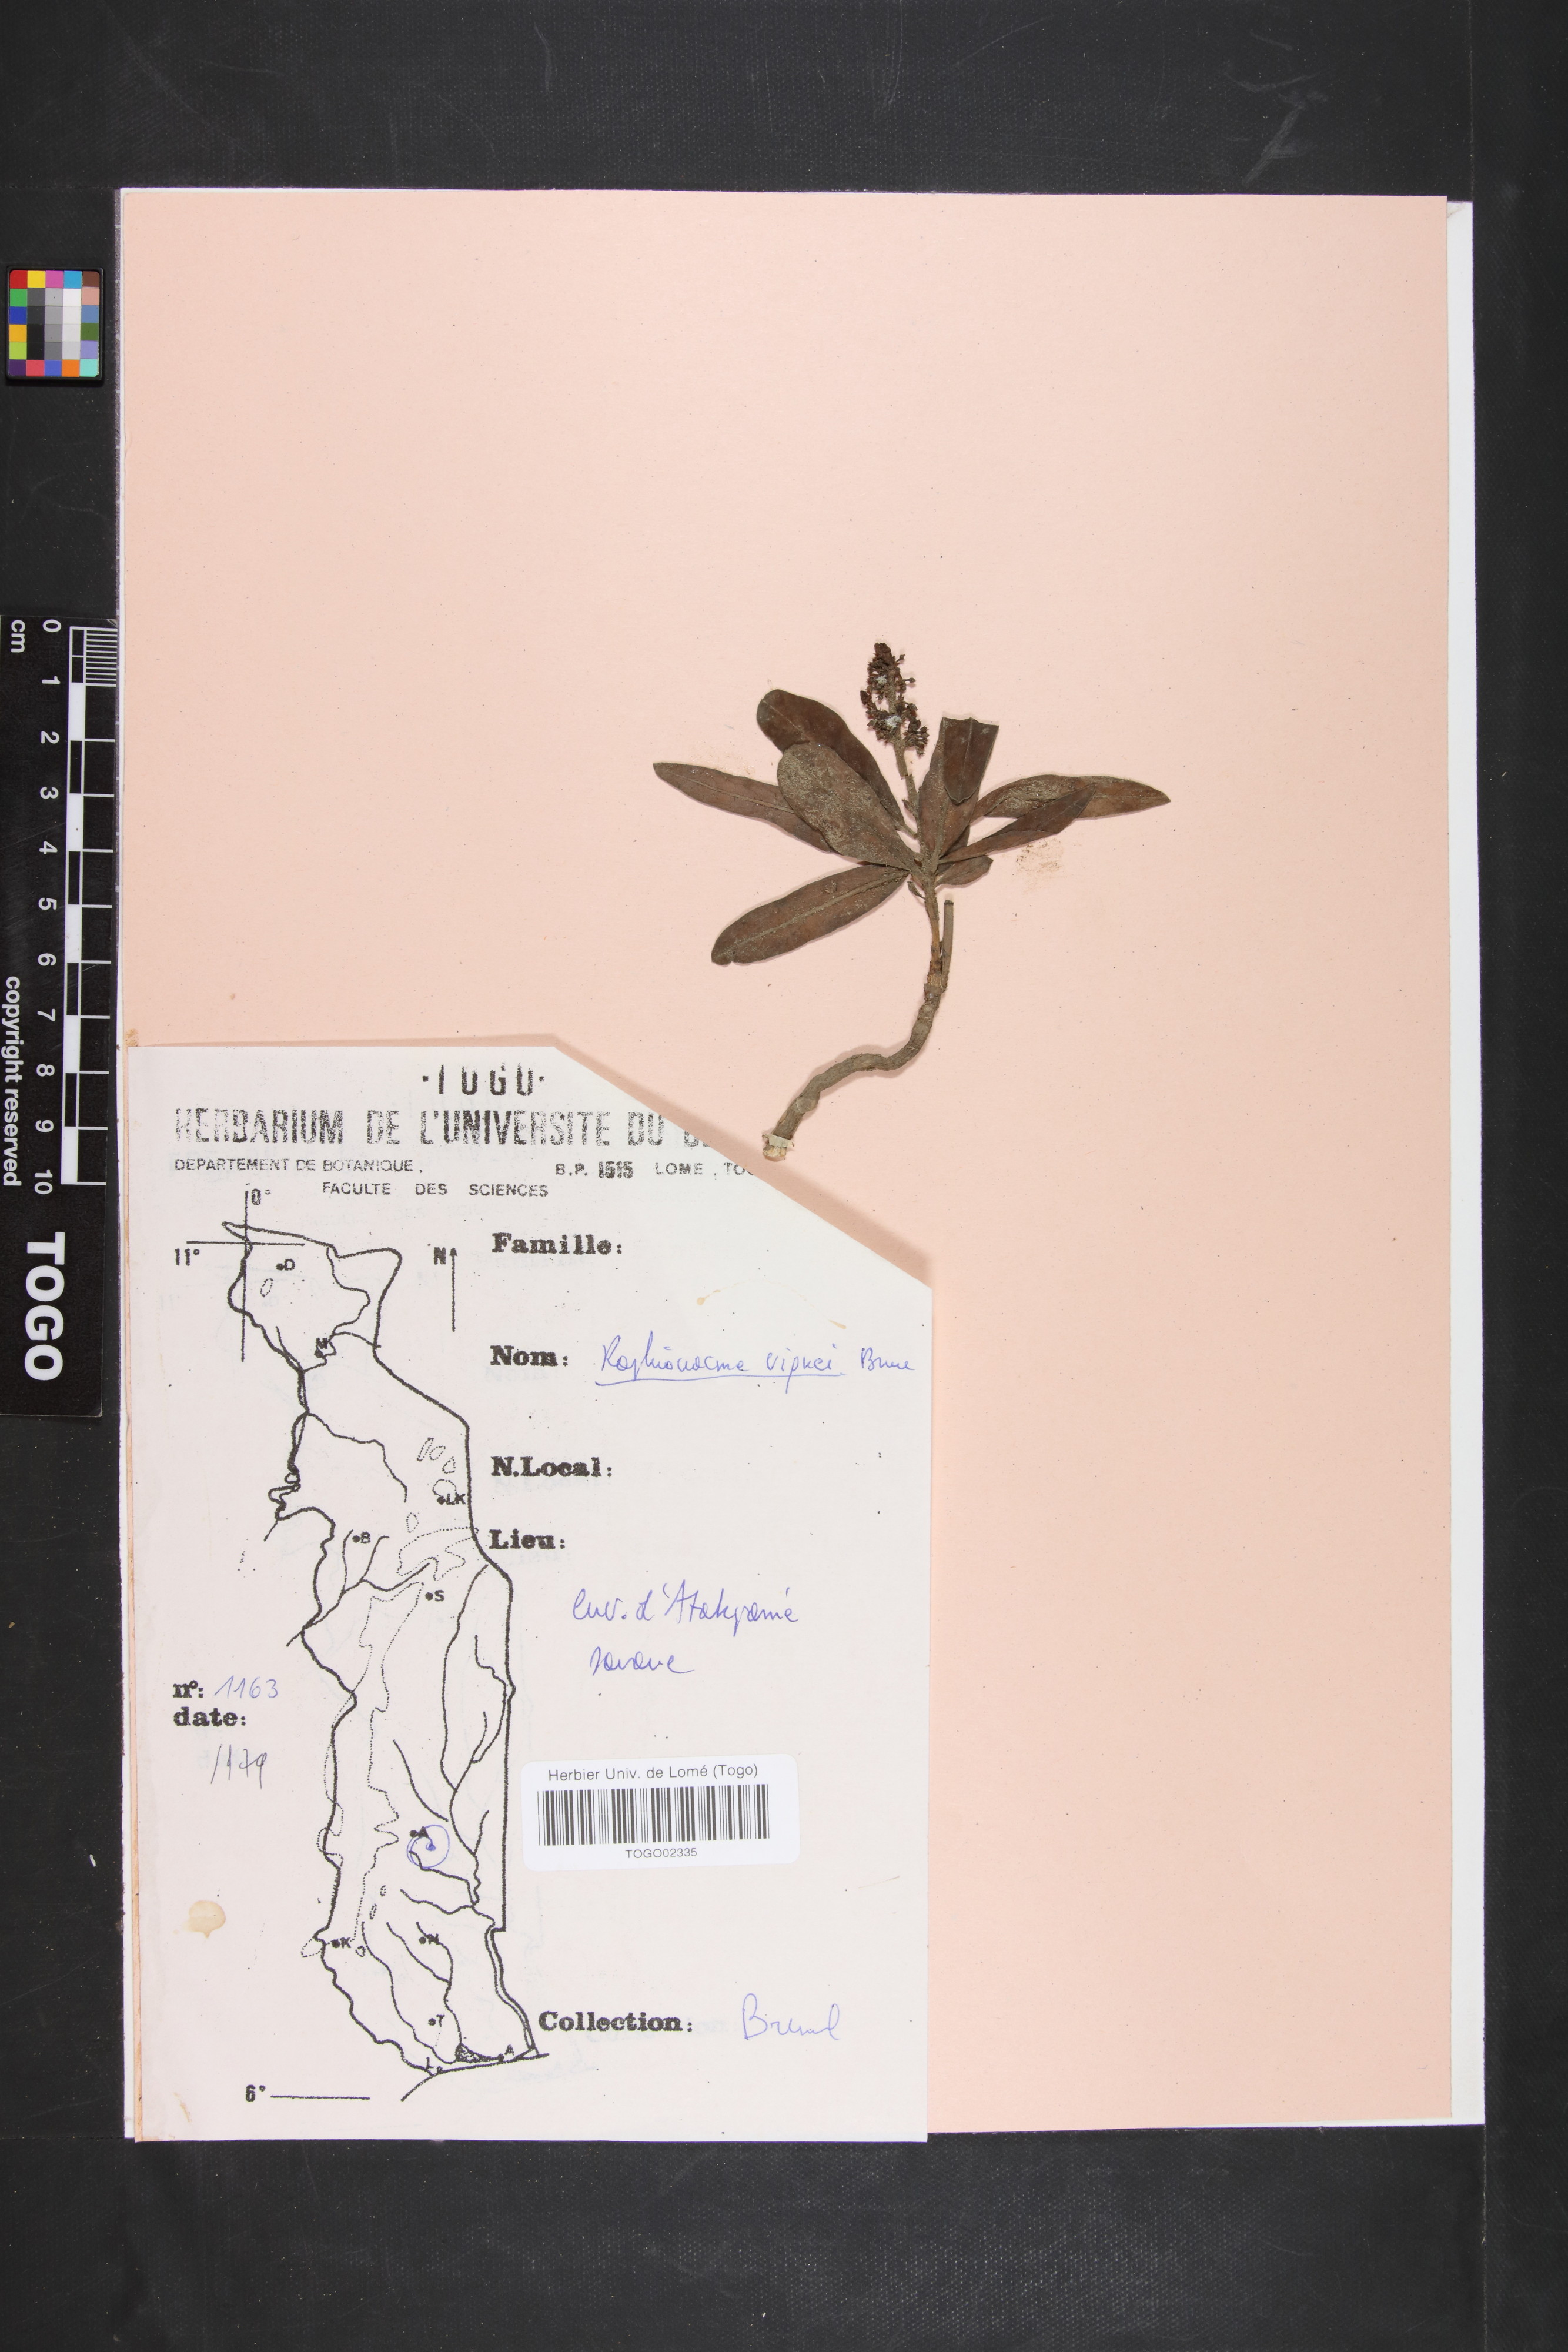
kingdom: Plantae
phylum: Tracheophyta
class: Magnoliopsida
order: Gentianales
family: Apocynaceae
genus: Raphionacme
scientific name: Raphionacme vignei
